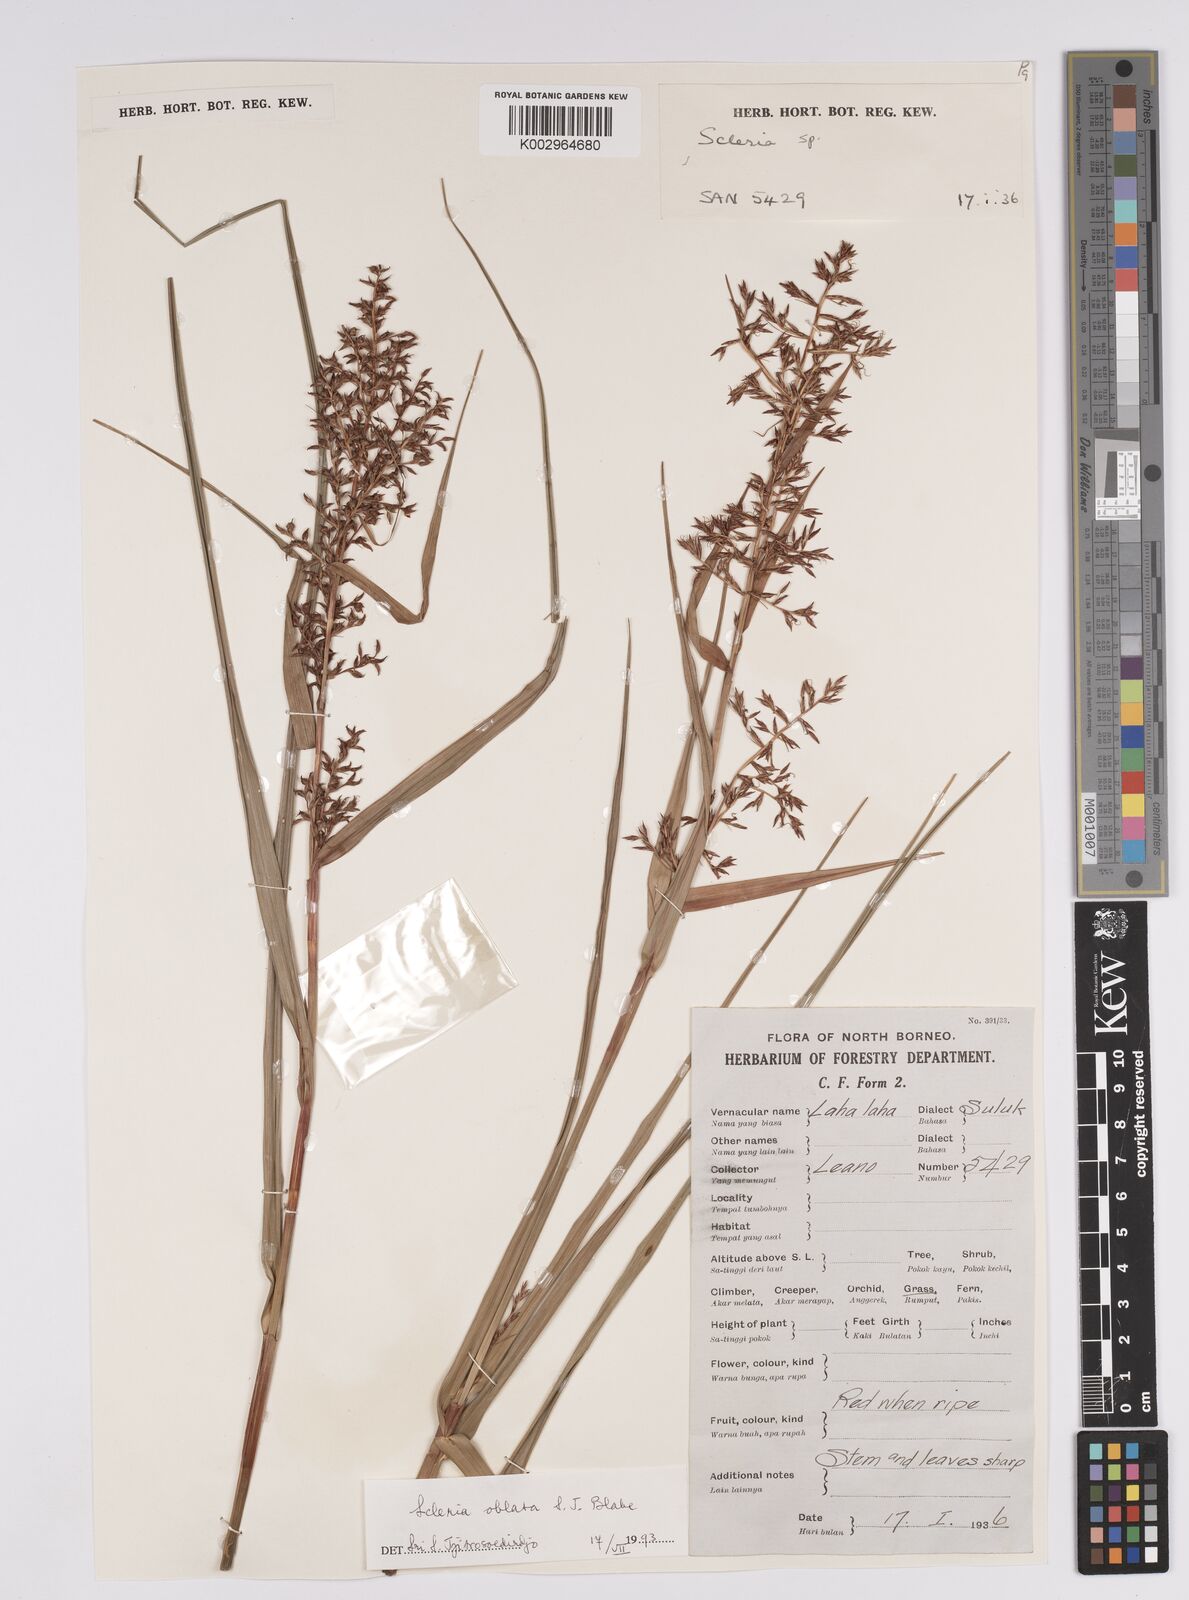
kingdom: Plantae
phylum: Tracheophyta
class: Liliopsida
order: Poales
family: Cyperaceae
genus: Scleria
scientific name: Scleria oblata
